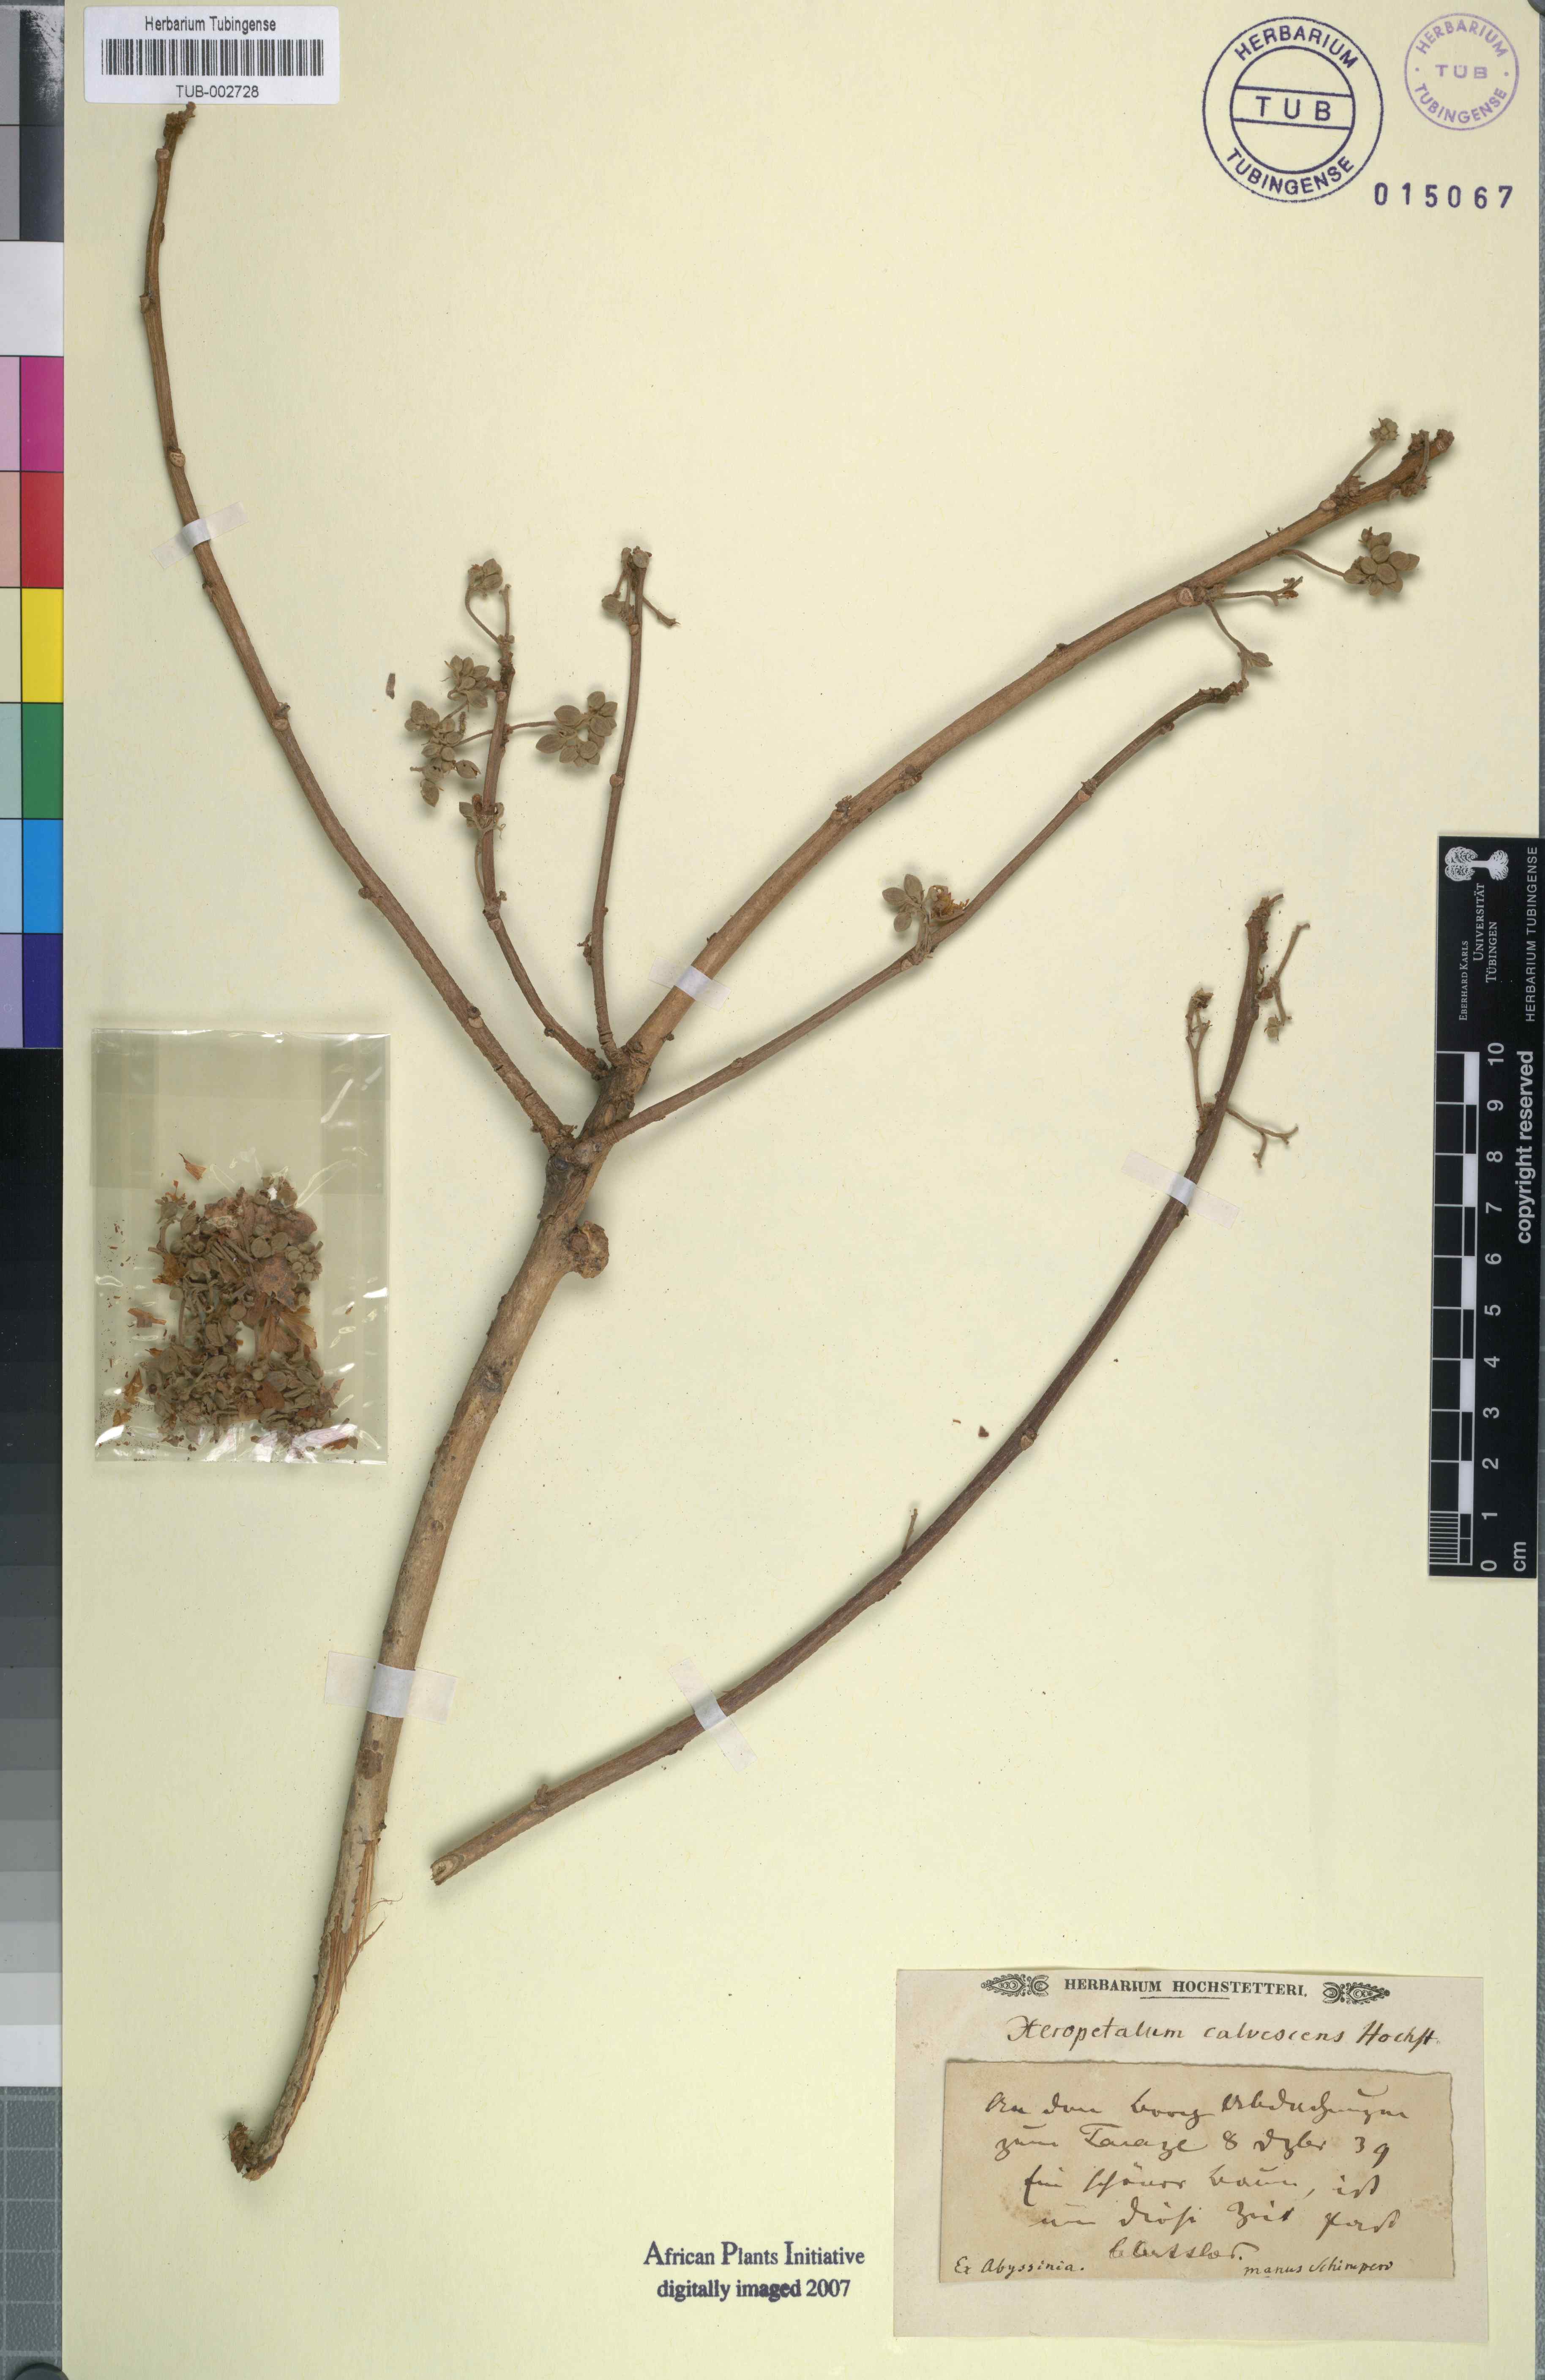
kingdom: Plantae
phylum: Tracheophyta
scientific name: Tracheophyta
